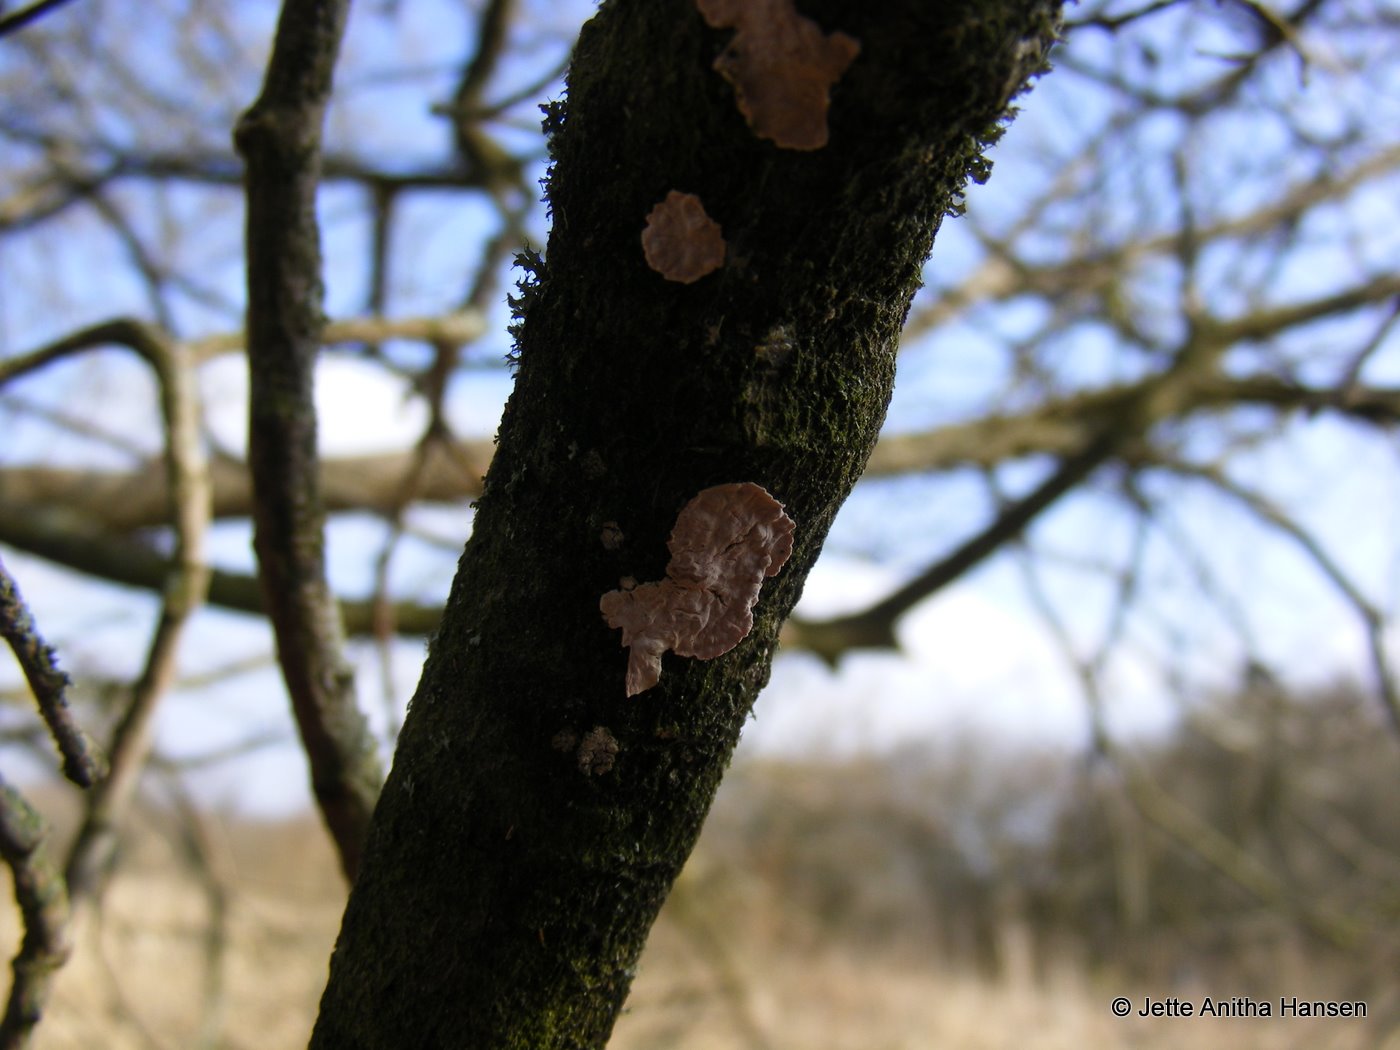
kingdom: Fungi
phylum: Basidiomycota
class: Agaricomycetes
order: Corticiales
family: Corticiaceae
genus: Corticium
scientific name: Corticium roseum
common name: rosa barkskind
